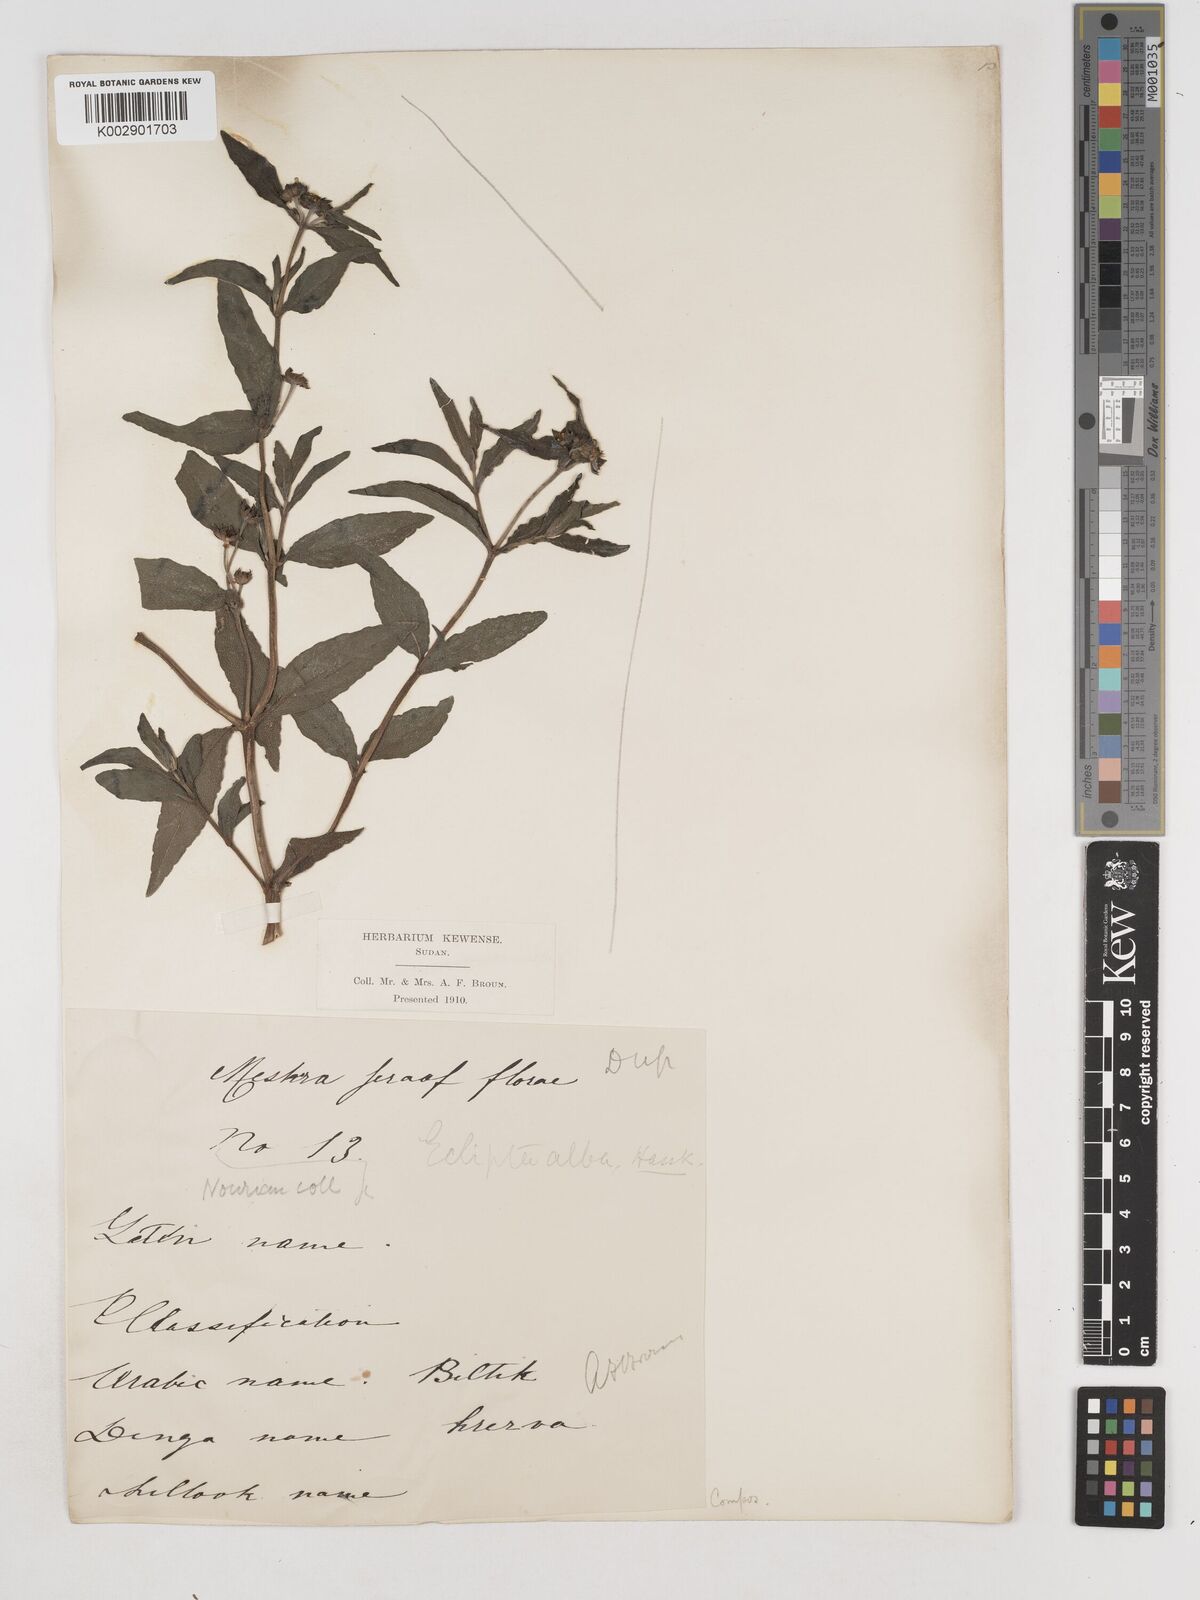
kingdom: Plantae
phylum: Tracheophyta
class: Magnoliopsida
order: Asterales
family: Asteraceae
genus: Eclipta
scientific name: Eclipta alba
